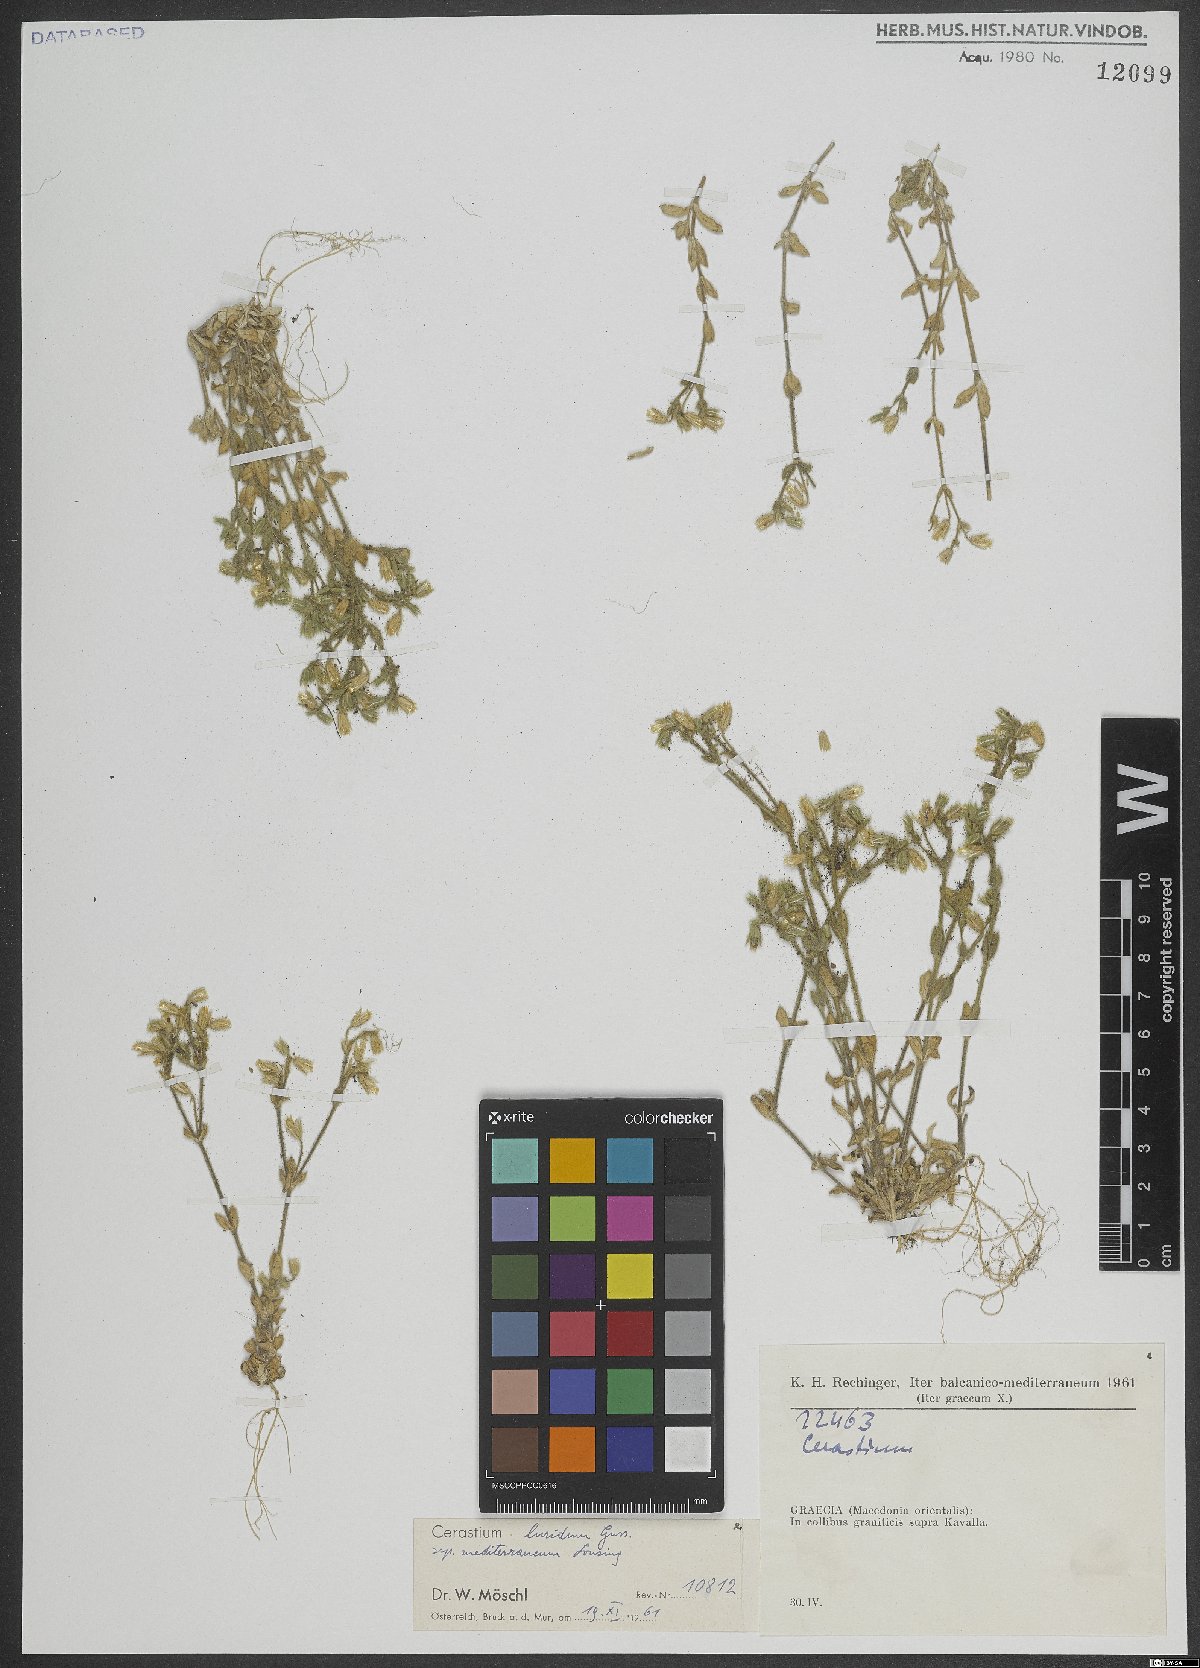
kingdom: Plantae
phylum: Tracheophyta
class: Magnoliopsida
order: Caryophyllales
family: Caryophyllaceae
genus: Cerastium
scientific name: Cerastium brachypetalum
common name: Grey mouse-ear
